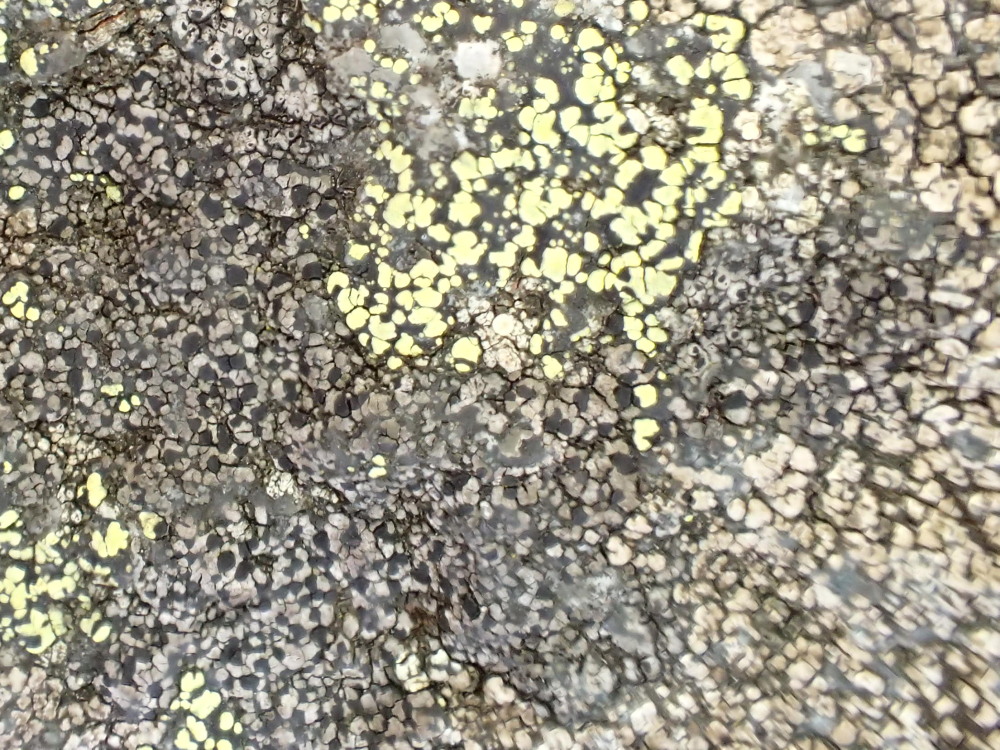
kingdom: Fungi
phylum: Ascomycota
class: Lecanoromycetes
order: Rhizocarpales
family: Rhizocarpaceae
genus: Rhizocarpon
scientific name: Rhizocarpon reductum
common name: mørk landkortlav
